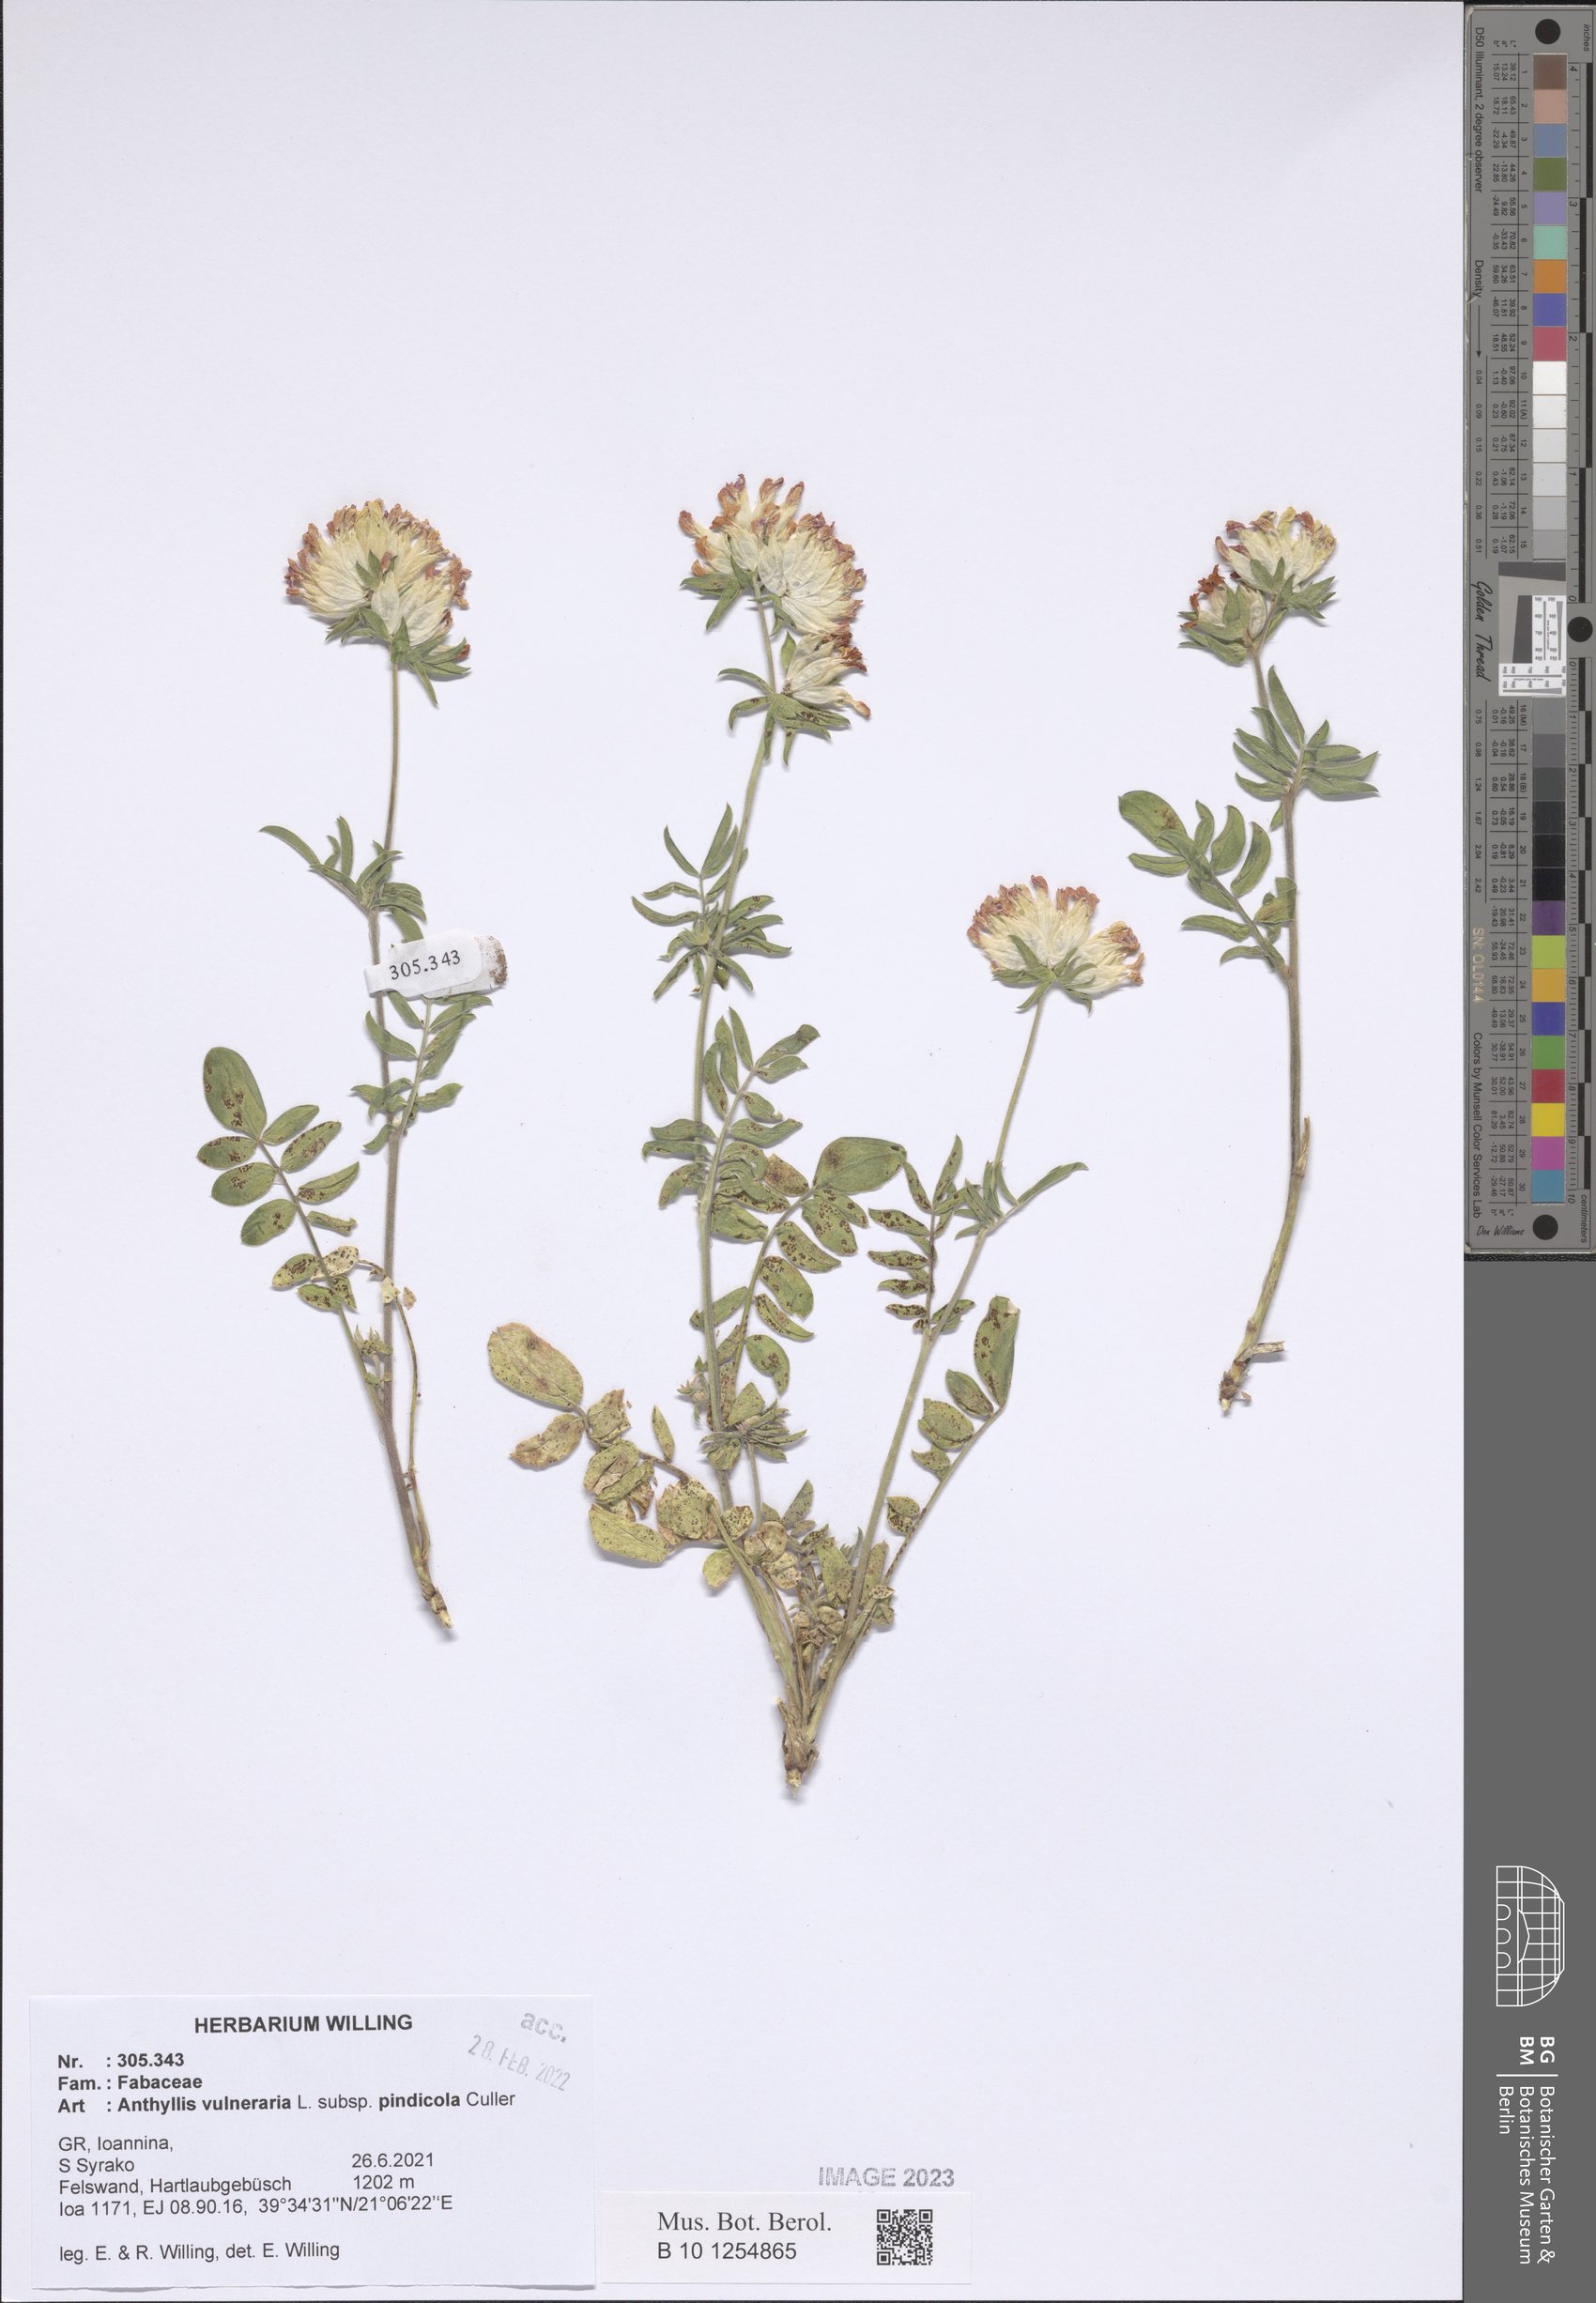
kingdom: Plantae
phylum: Tracheophyta
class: Magnoliopsida
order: Fabales
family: Fabaceae
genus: Anthyllis
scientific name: Anthyllis vulneraria
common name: Kidney vetch
